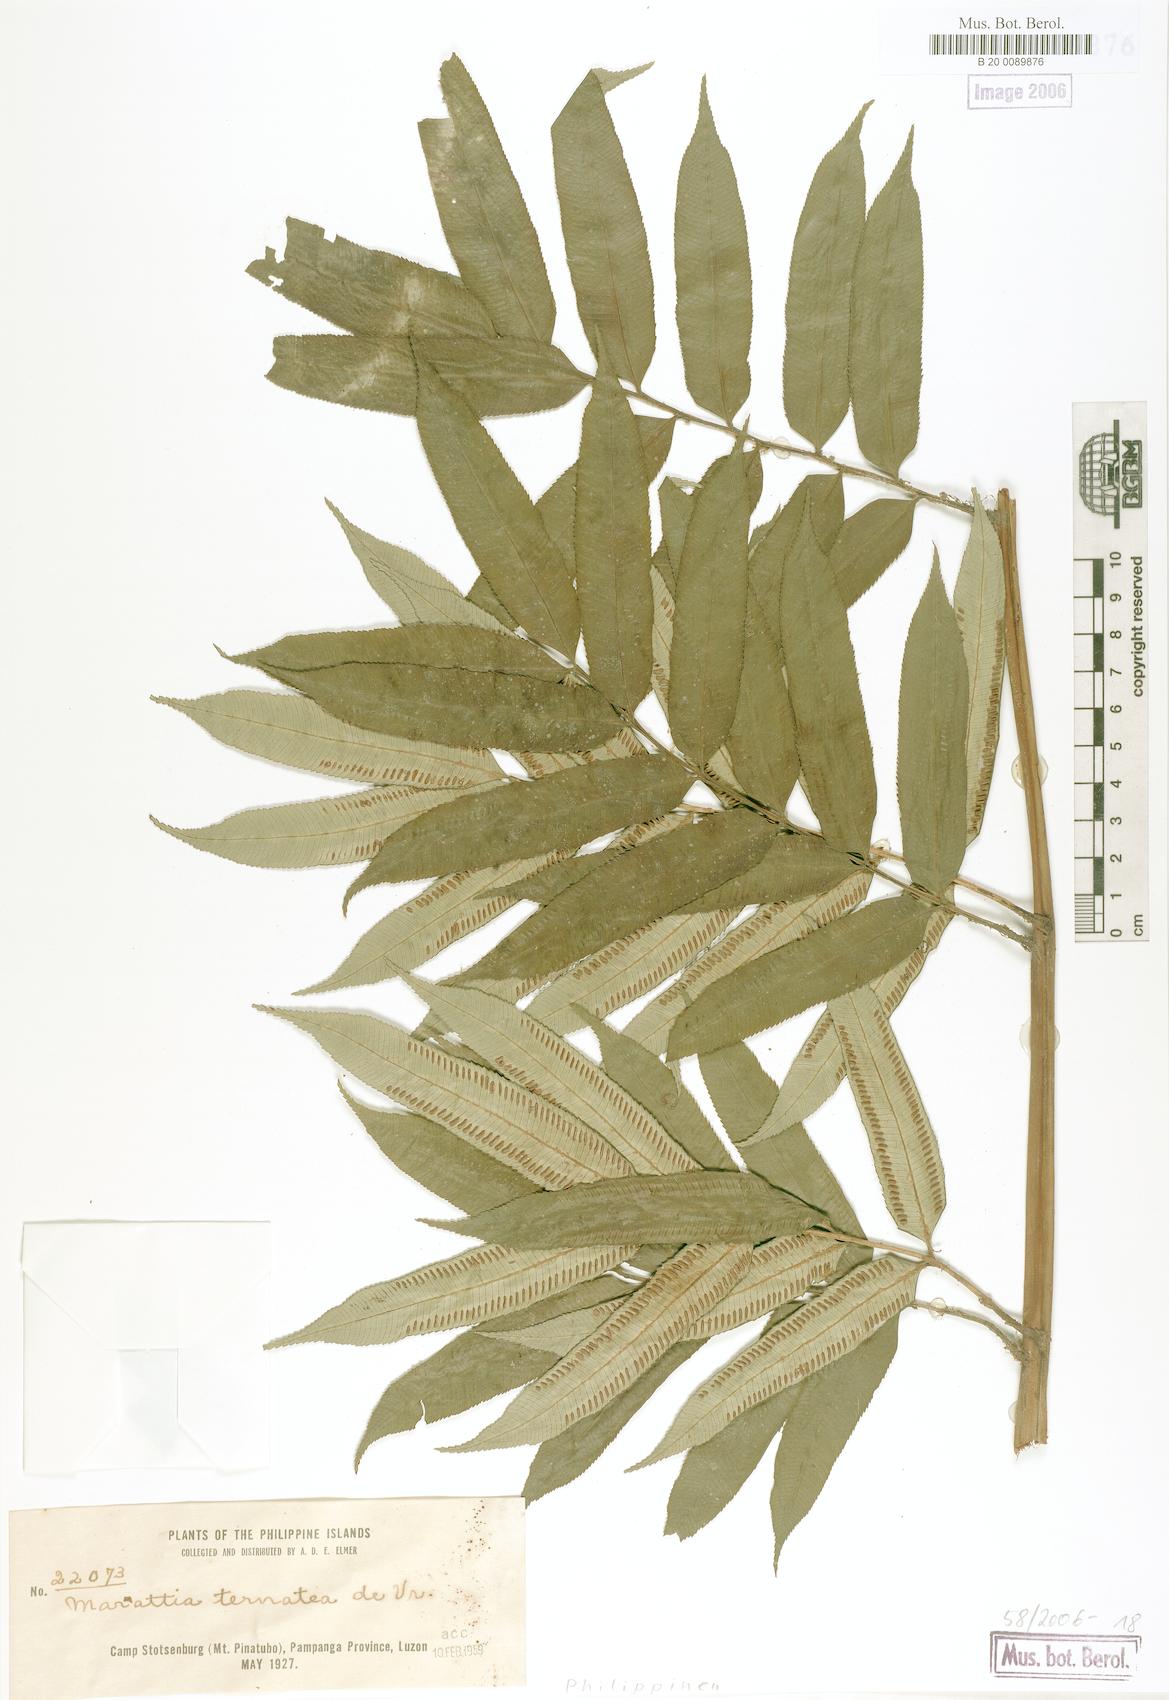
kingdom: Plantae
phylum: Tracheophyta
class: Polypodiopsida
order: Marattiales
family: Marattiaceae
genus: Ptisana
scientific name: Ptisana ternatea
